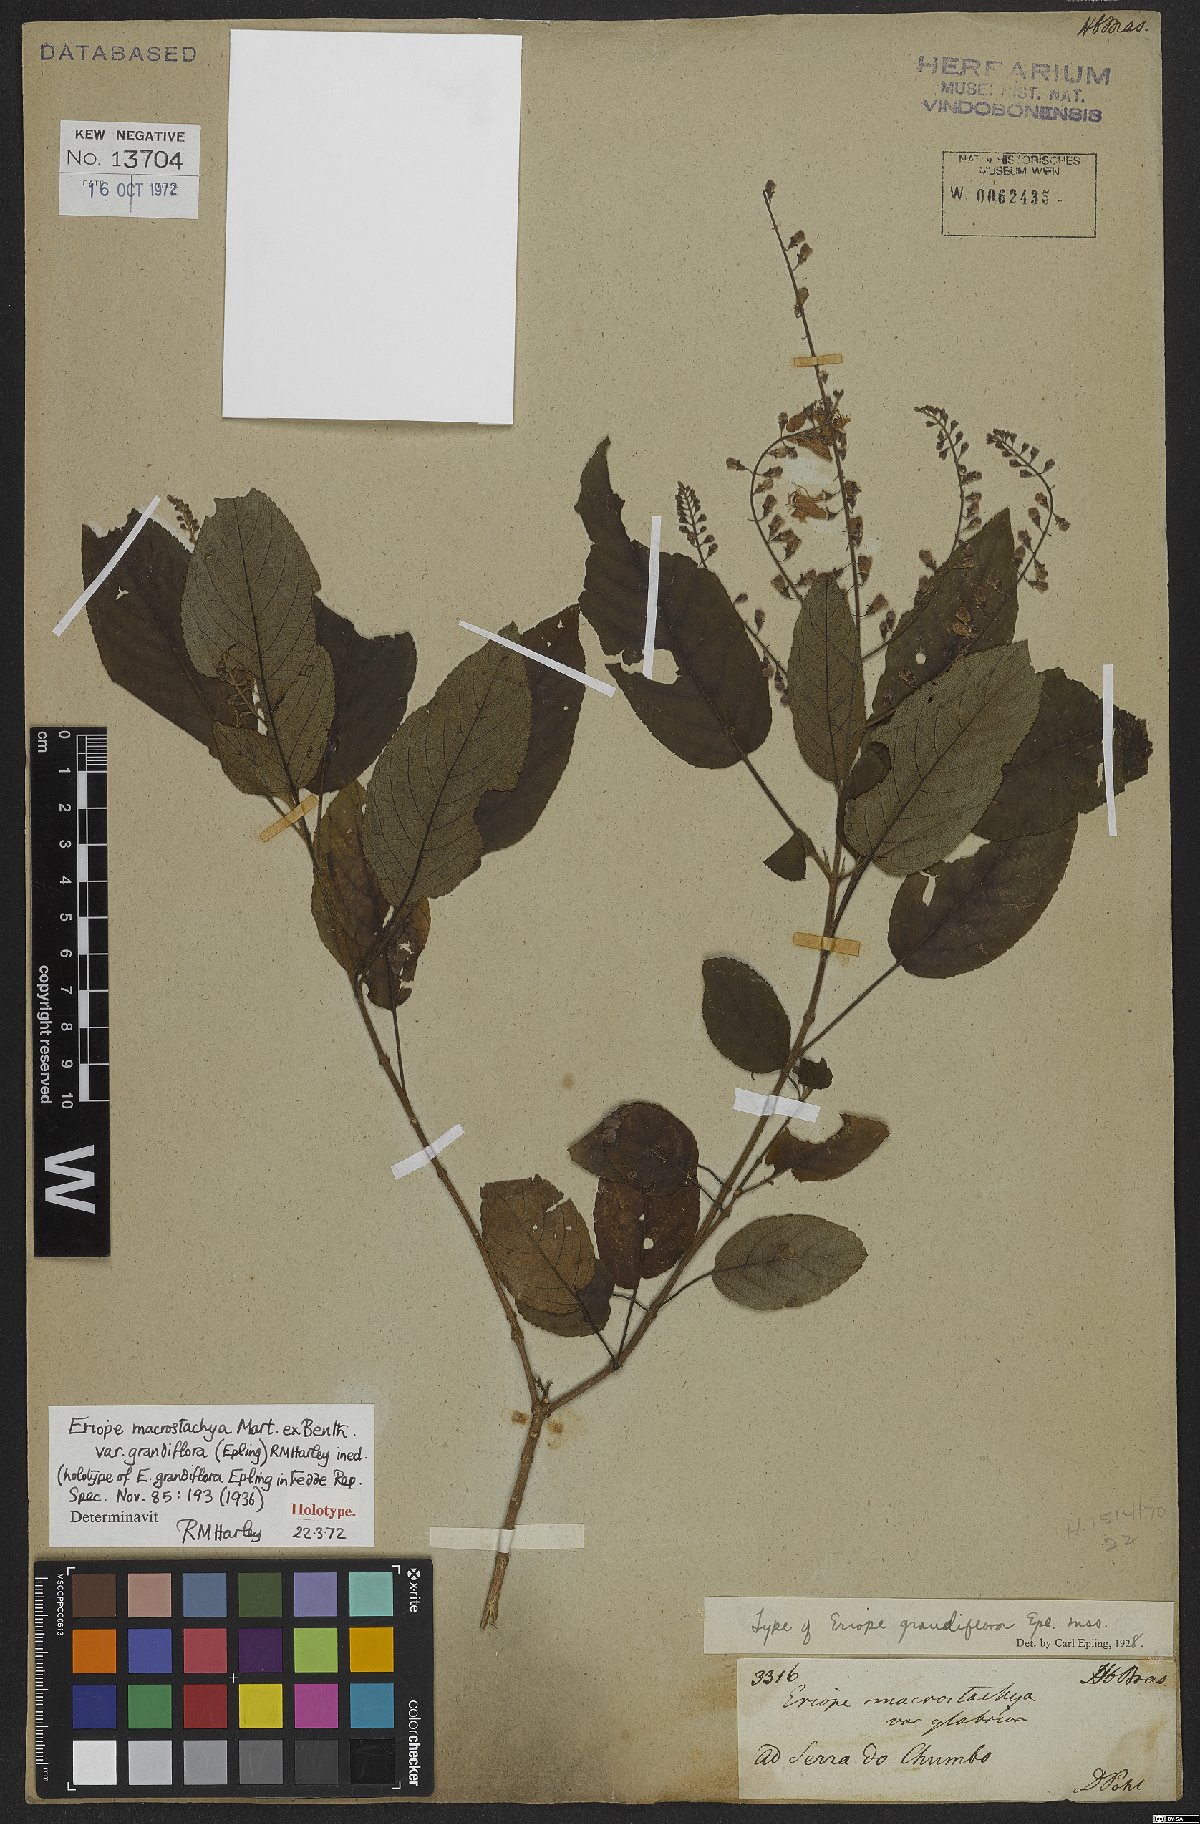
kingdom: Plantae
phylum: Tracheophyta
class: Magnoliopsida
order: Lamiales
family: Lamiaceae
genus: Eriope
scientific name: Eriope macrostachya
